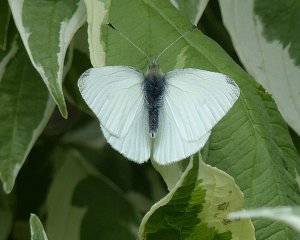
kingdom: Animalia
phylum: Arthropoda
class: Insecta
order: Lepidoptera
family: Pieridae
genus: Pieris
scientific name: Pieris marginalis
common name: Margined White
